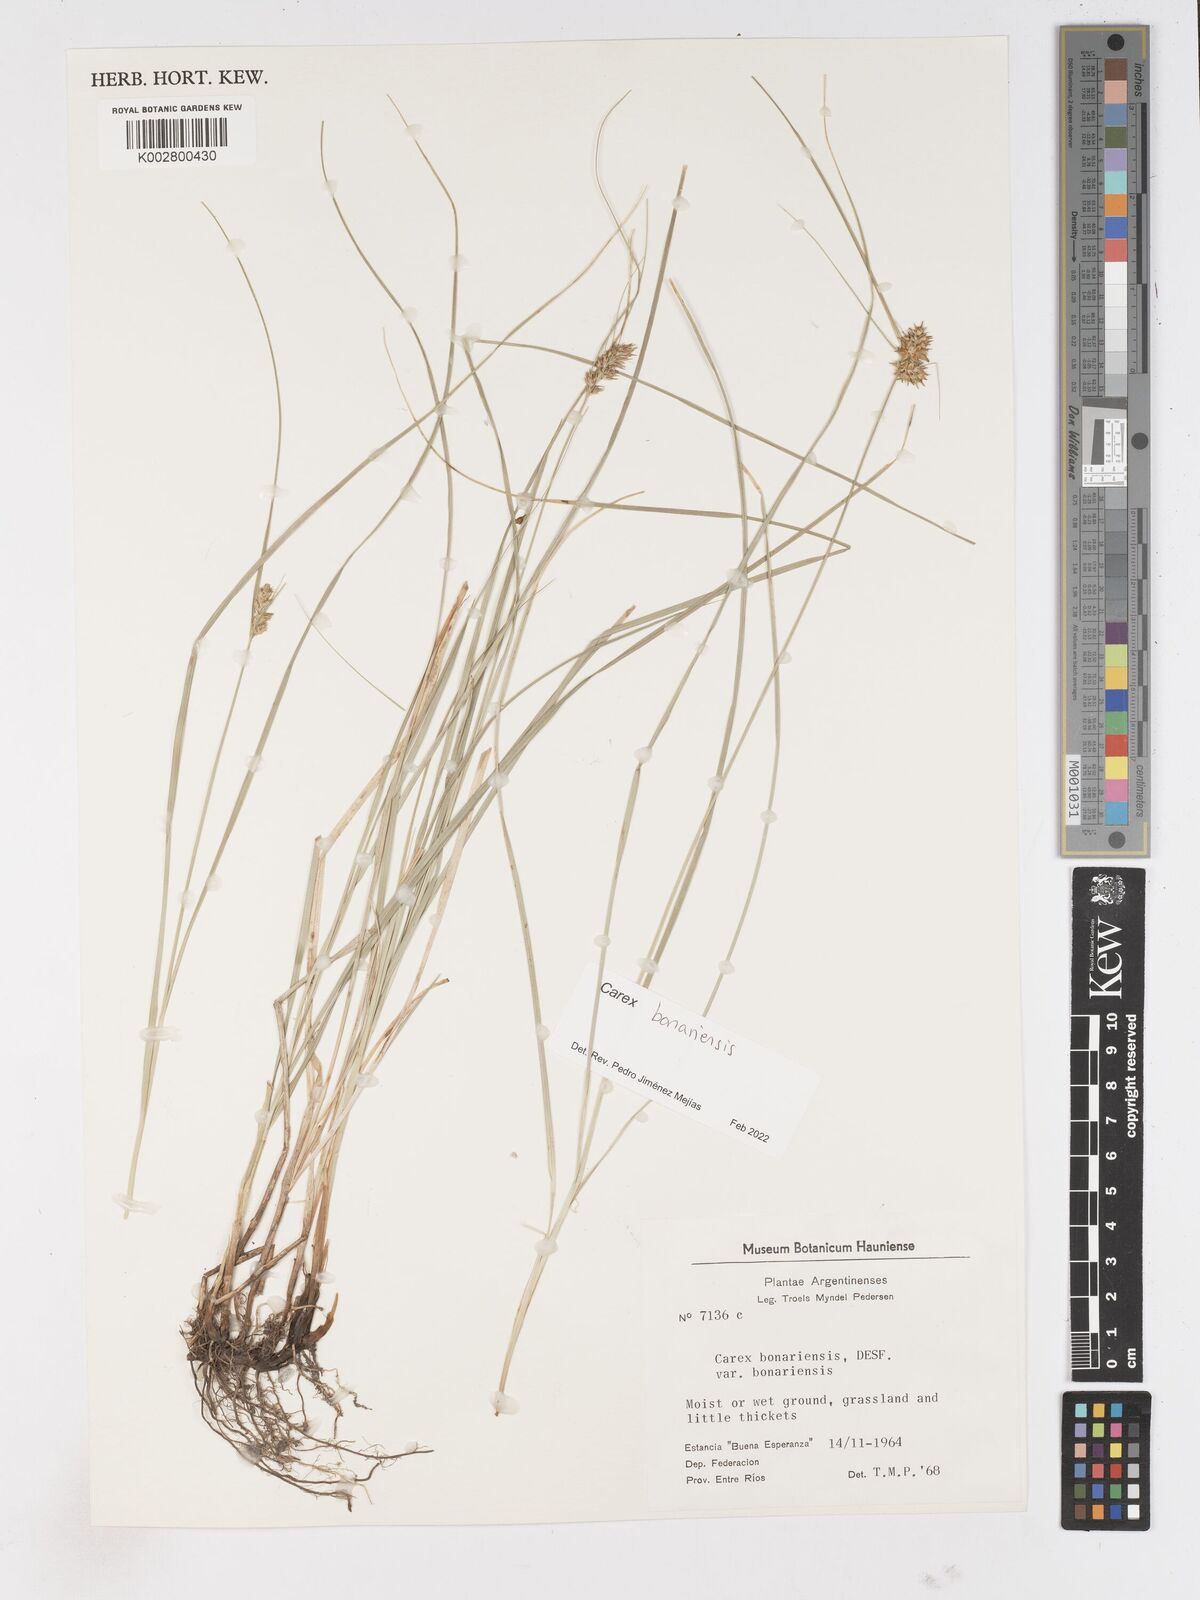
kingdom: Plantae
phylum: Tracheophyta
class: Liliopsida
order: Poales
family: Cyperaceae
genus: Carex
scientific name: Carex bonariensis
